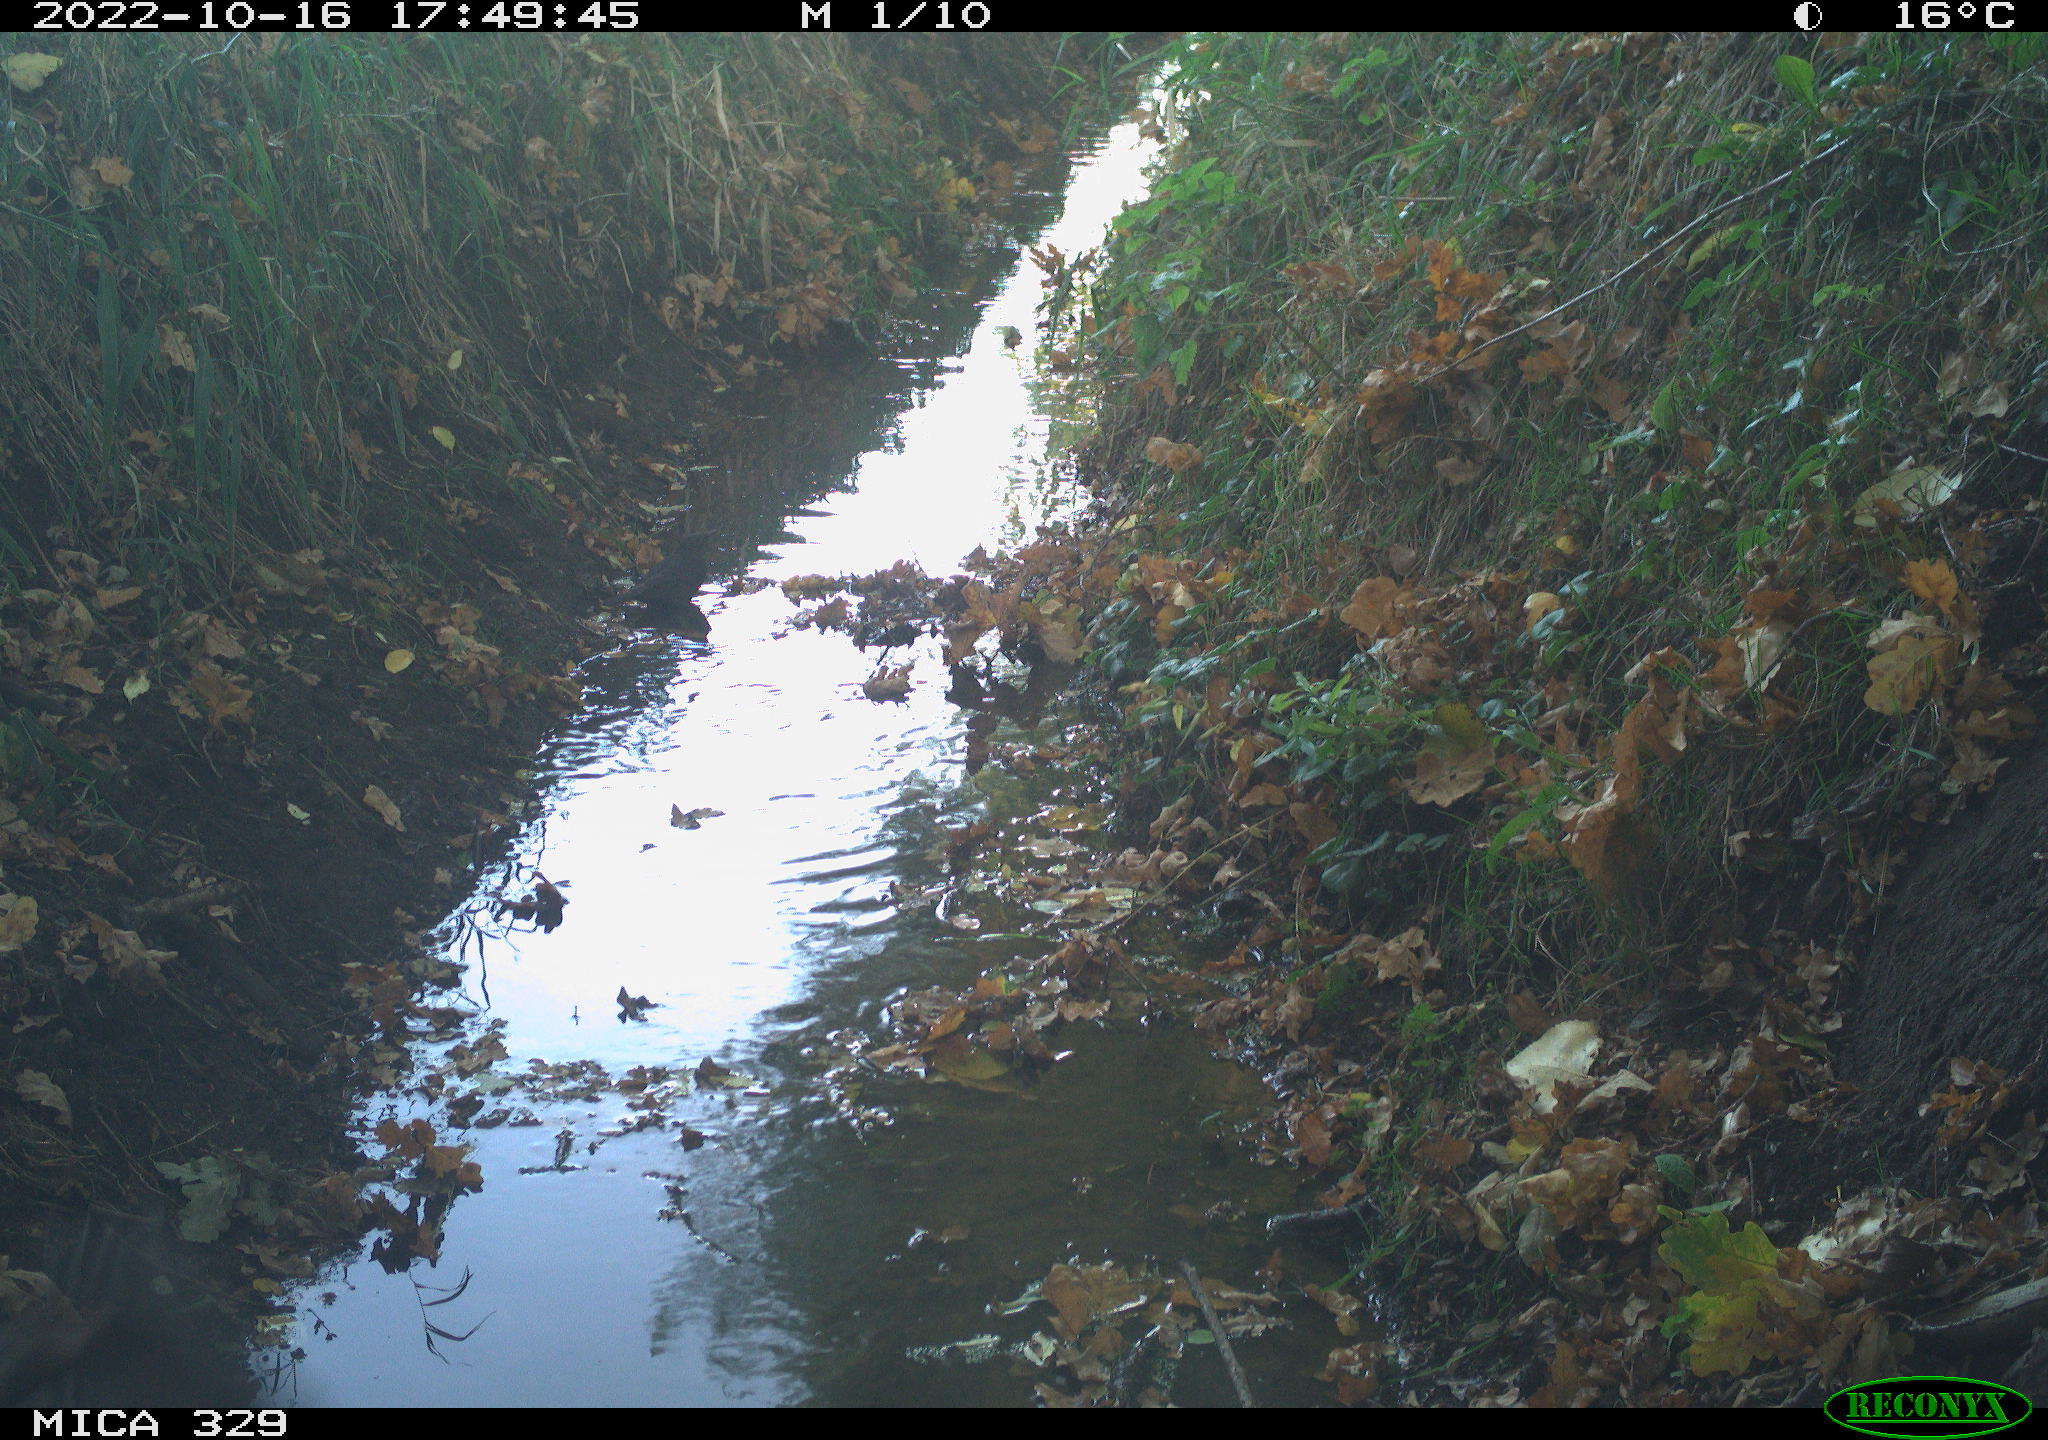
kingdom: Animalia
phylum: Chordata
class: Aves
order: Passeriformes
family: Turdidae
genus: Turdus
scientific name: Turdus
